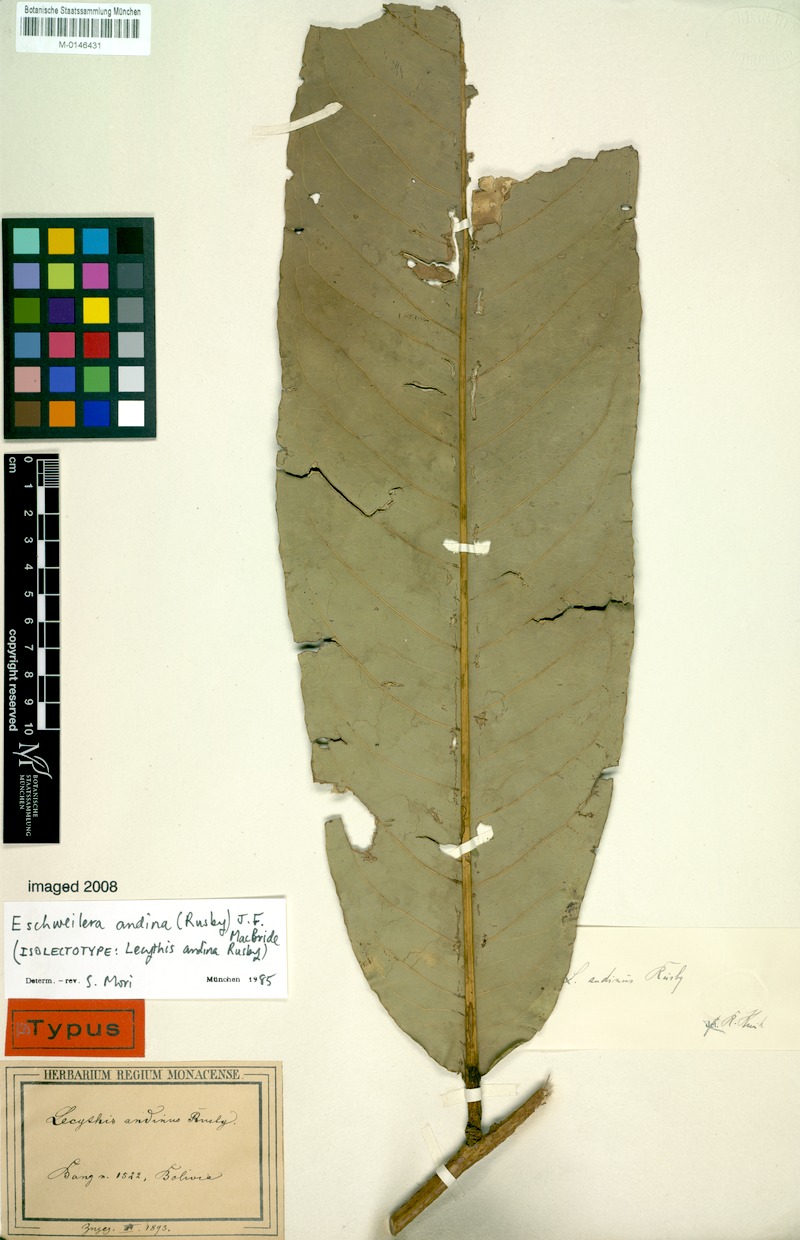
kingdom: Plantae
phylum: Tracheophyta
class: Magnoliopsida
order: Ericales
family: Lecythidaceae
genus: Eschweilera
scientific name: Eschweilera andina
